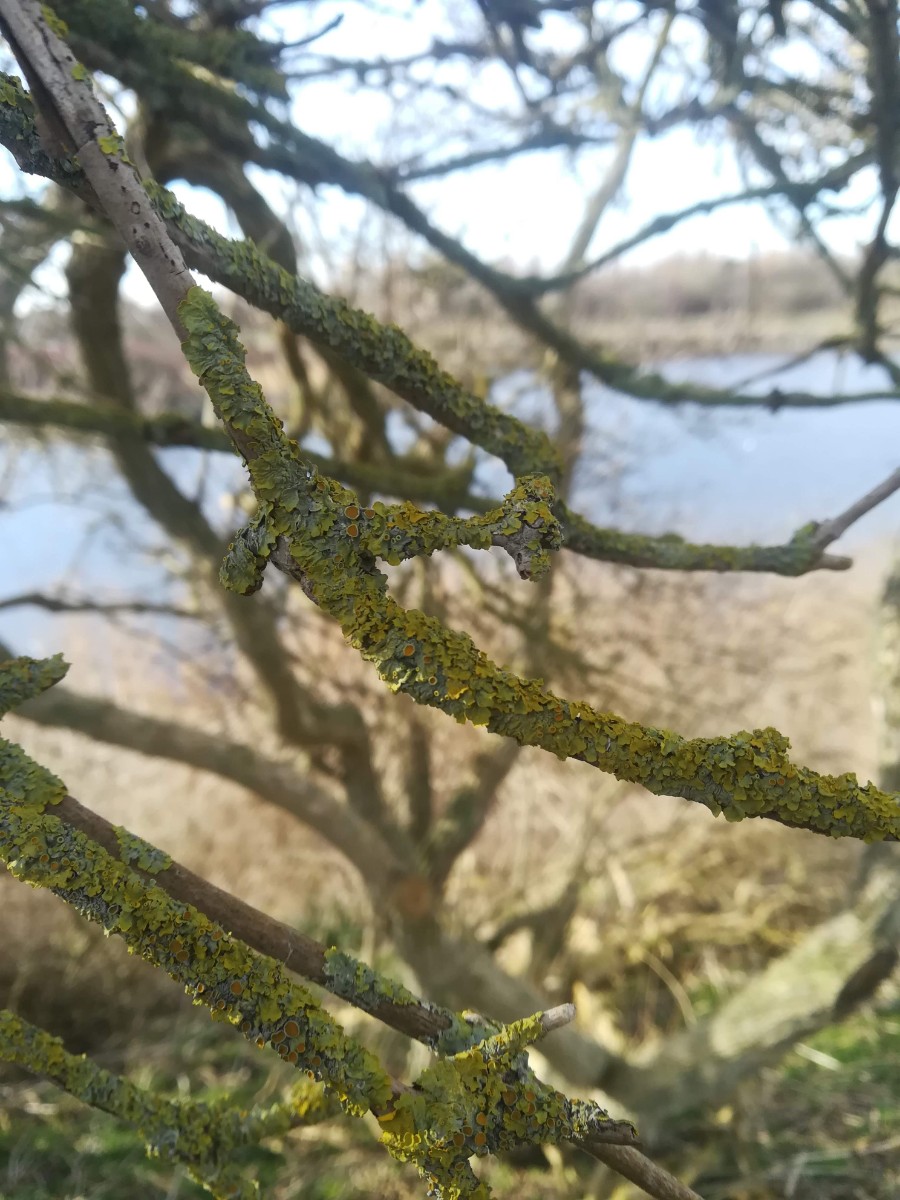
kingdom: Fungi
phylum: Ascomycota
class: Lecanoromycetes
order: Teloschistales
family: Teloschistaceae
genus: Xanthoria
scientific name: Xanthoria parietina
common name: almindelig væggelav
